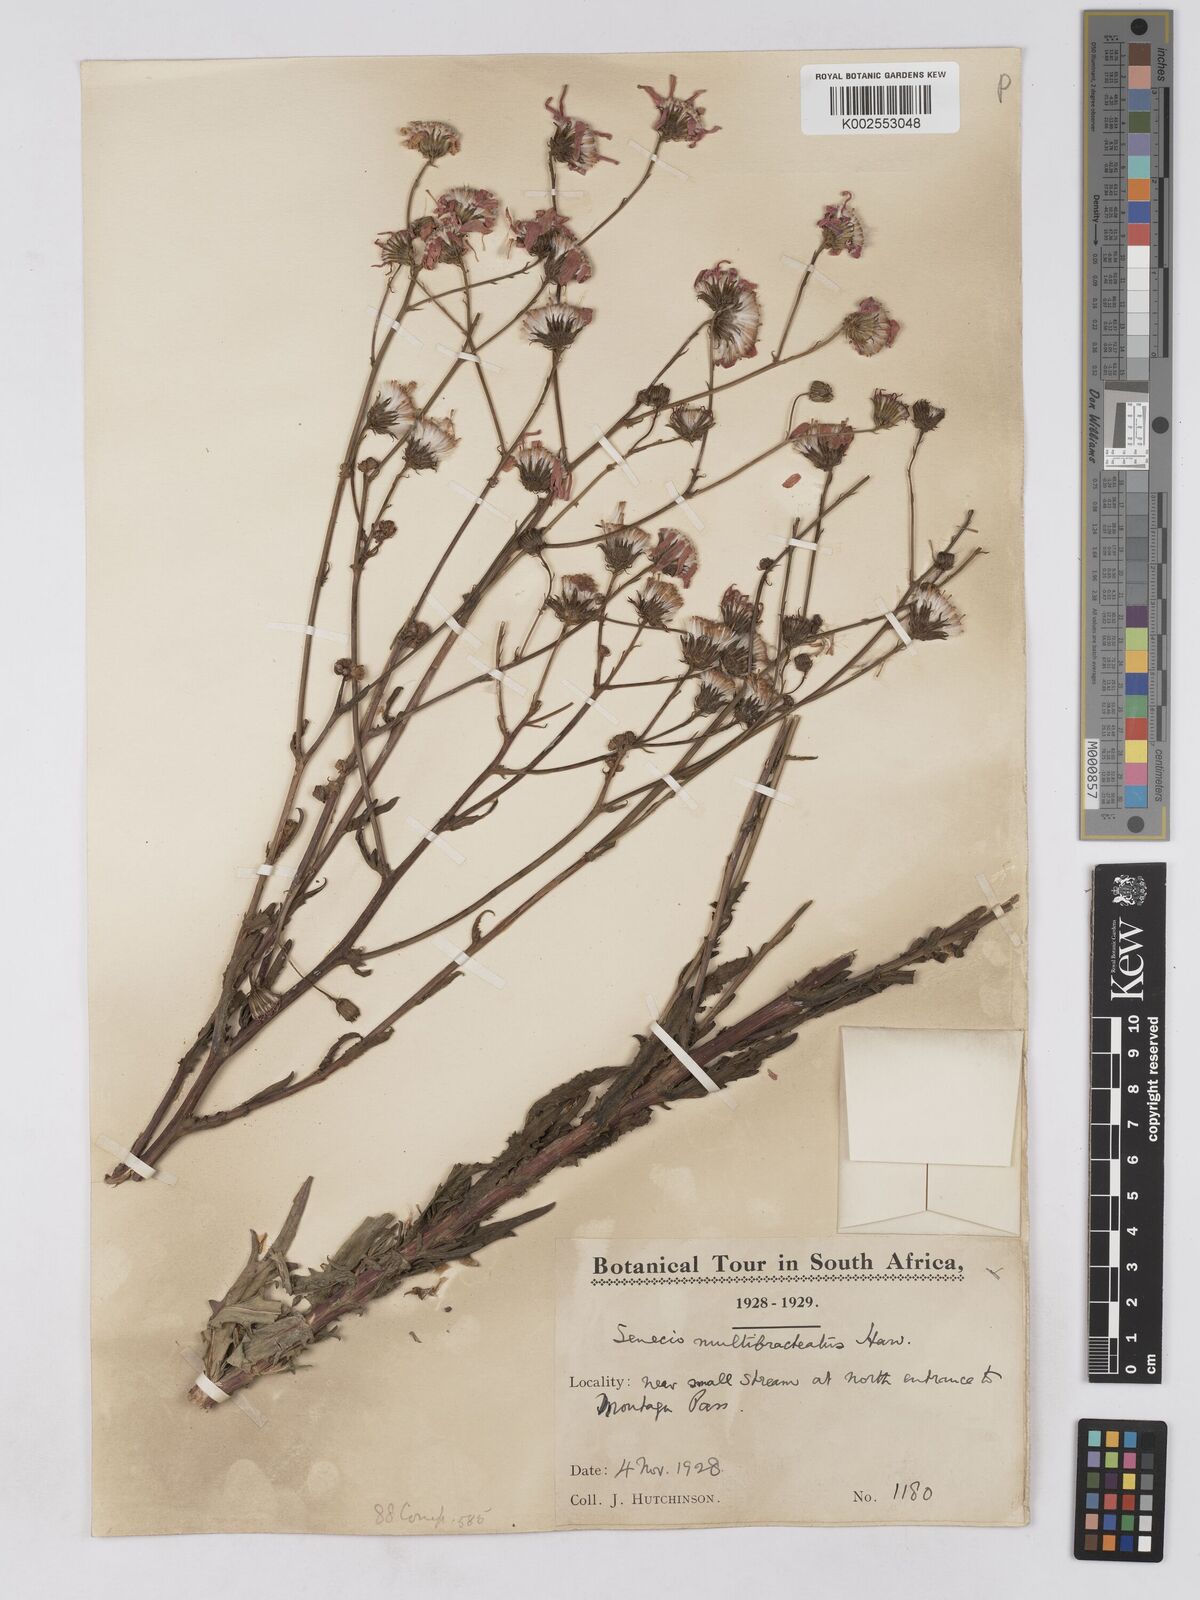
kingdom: Plantae
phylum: Tracheophyta
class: Magnoliopsida
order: Asterales
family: Asteraceae
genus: Senecio
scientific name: Senecio multibracteatus
